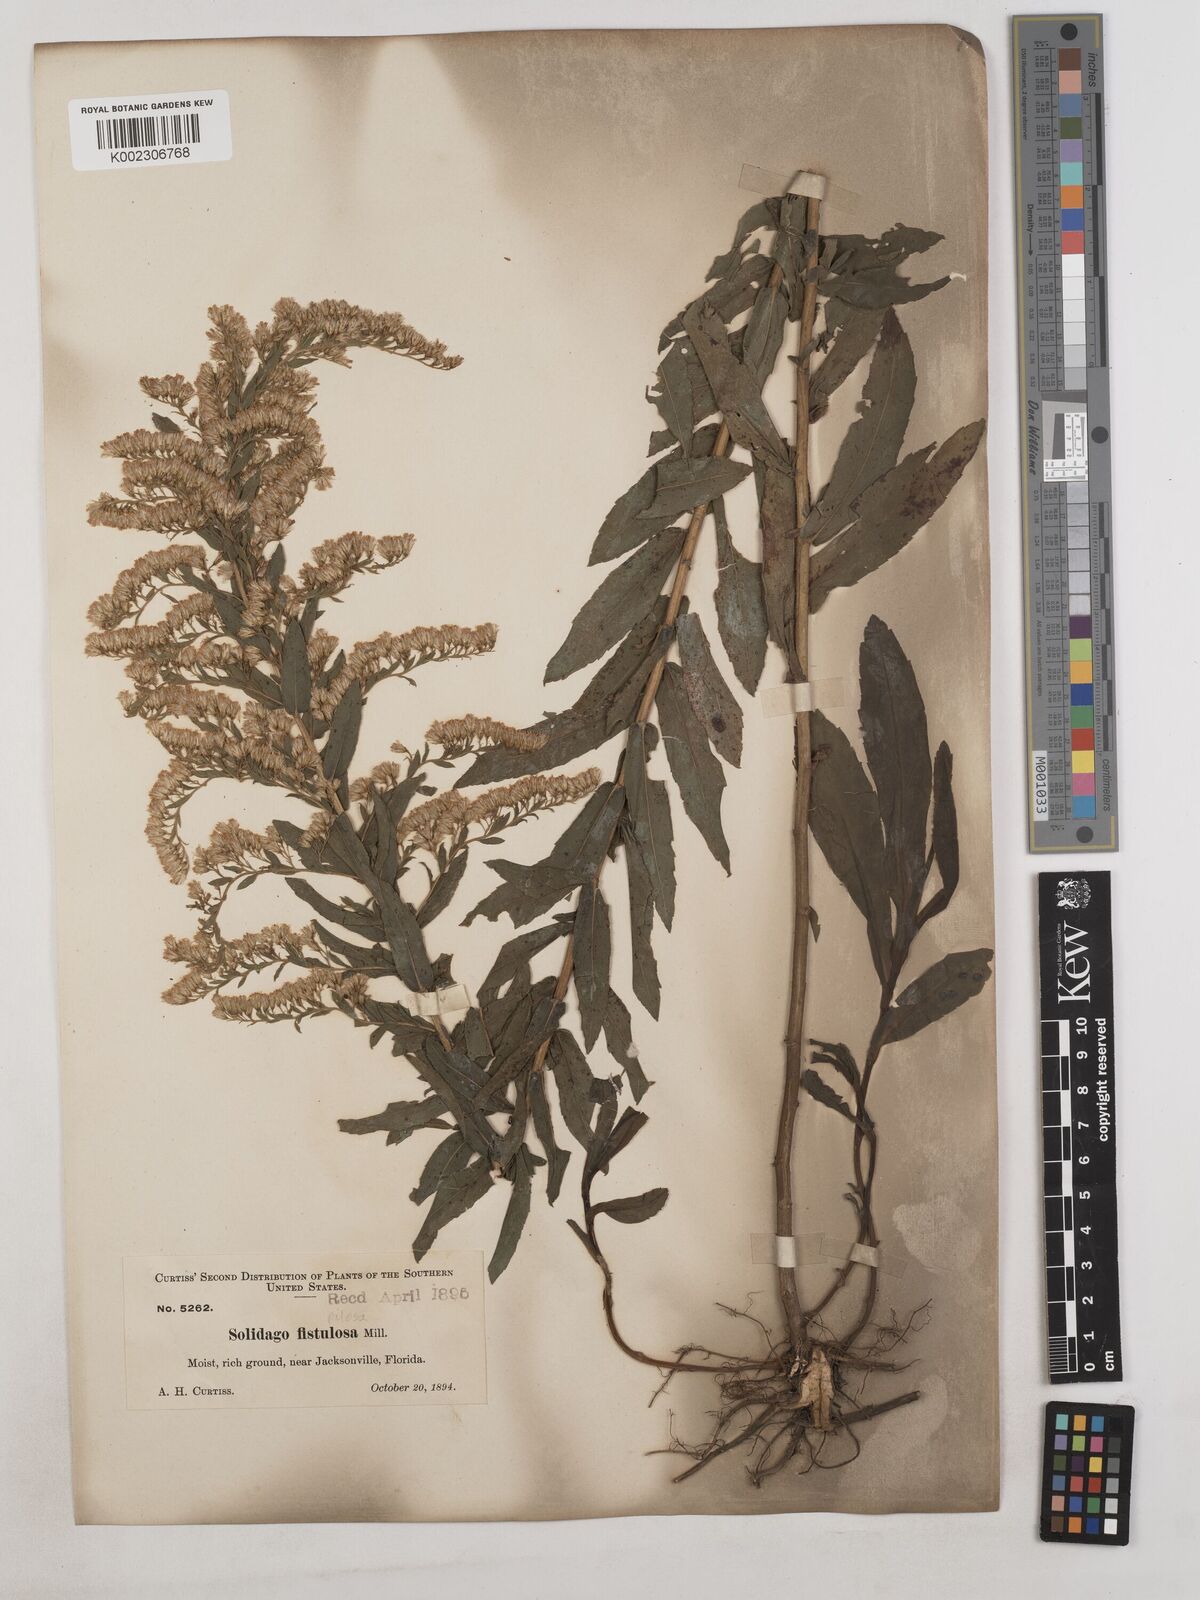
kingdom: Plantae
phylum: Tracheophyta
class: Magnoliopsida
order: Asterales
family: Asteraceae
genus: Solidago
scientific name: Solidago fistulosa
